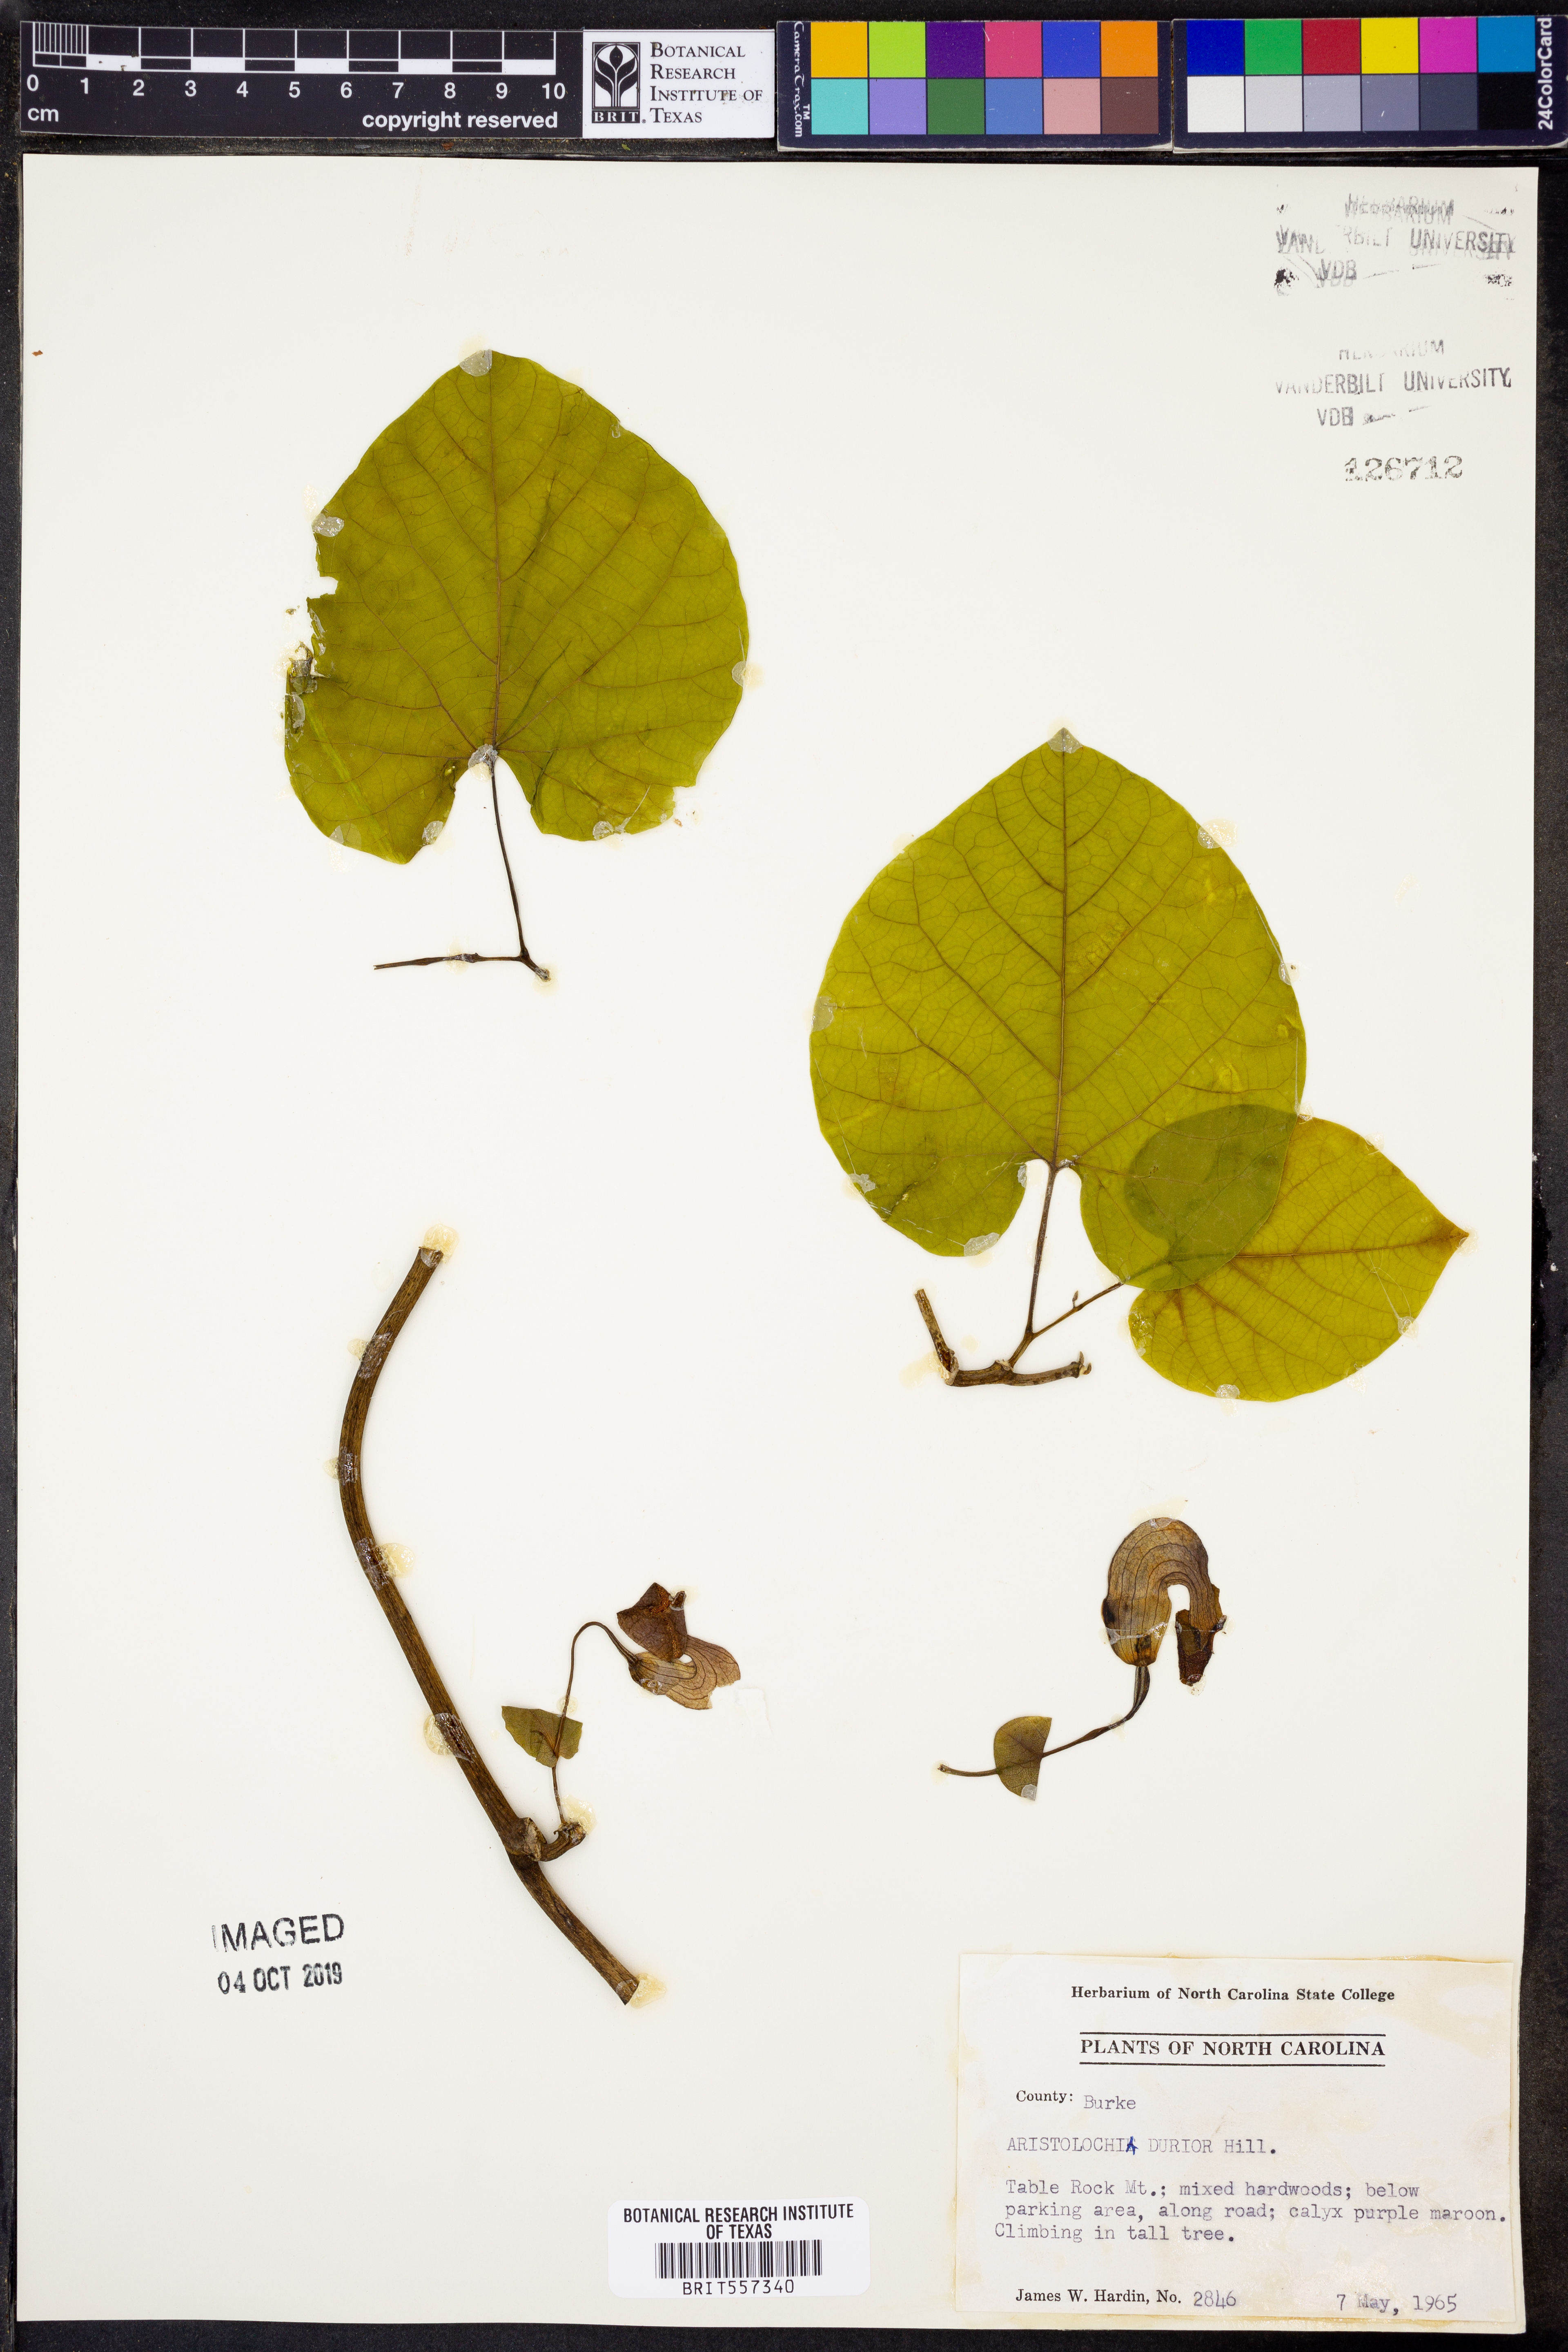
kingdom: Plantae
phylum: Tracheophyta
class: Magnoliopsida
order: Lamiales
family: Bignoniaceae
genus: Bignonia
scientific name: Bignonia capreolata
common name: Crossvine
